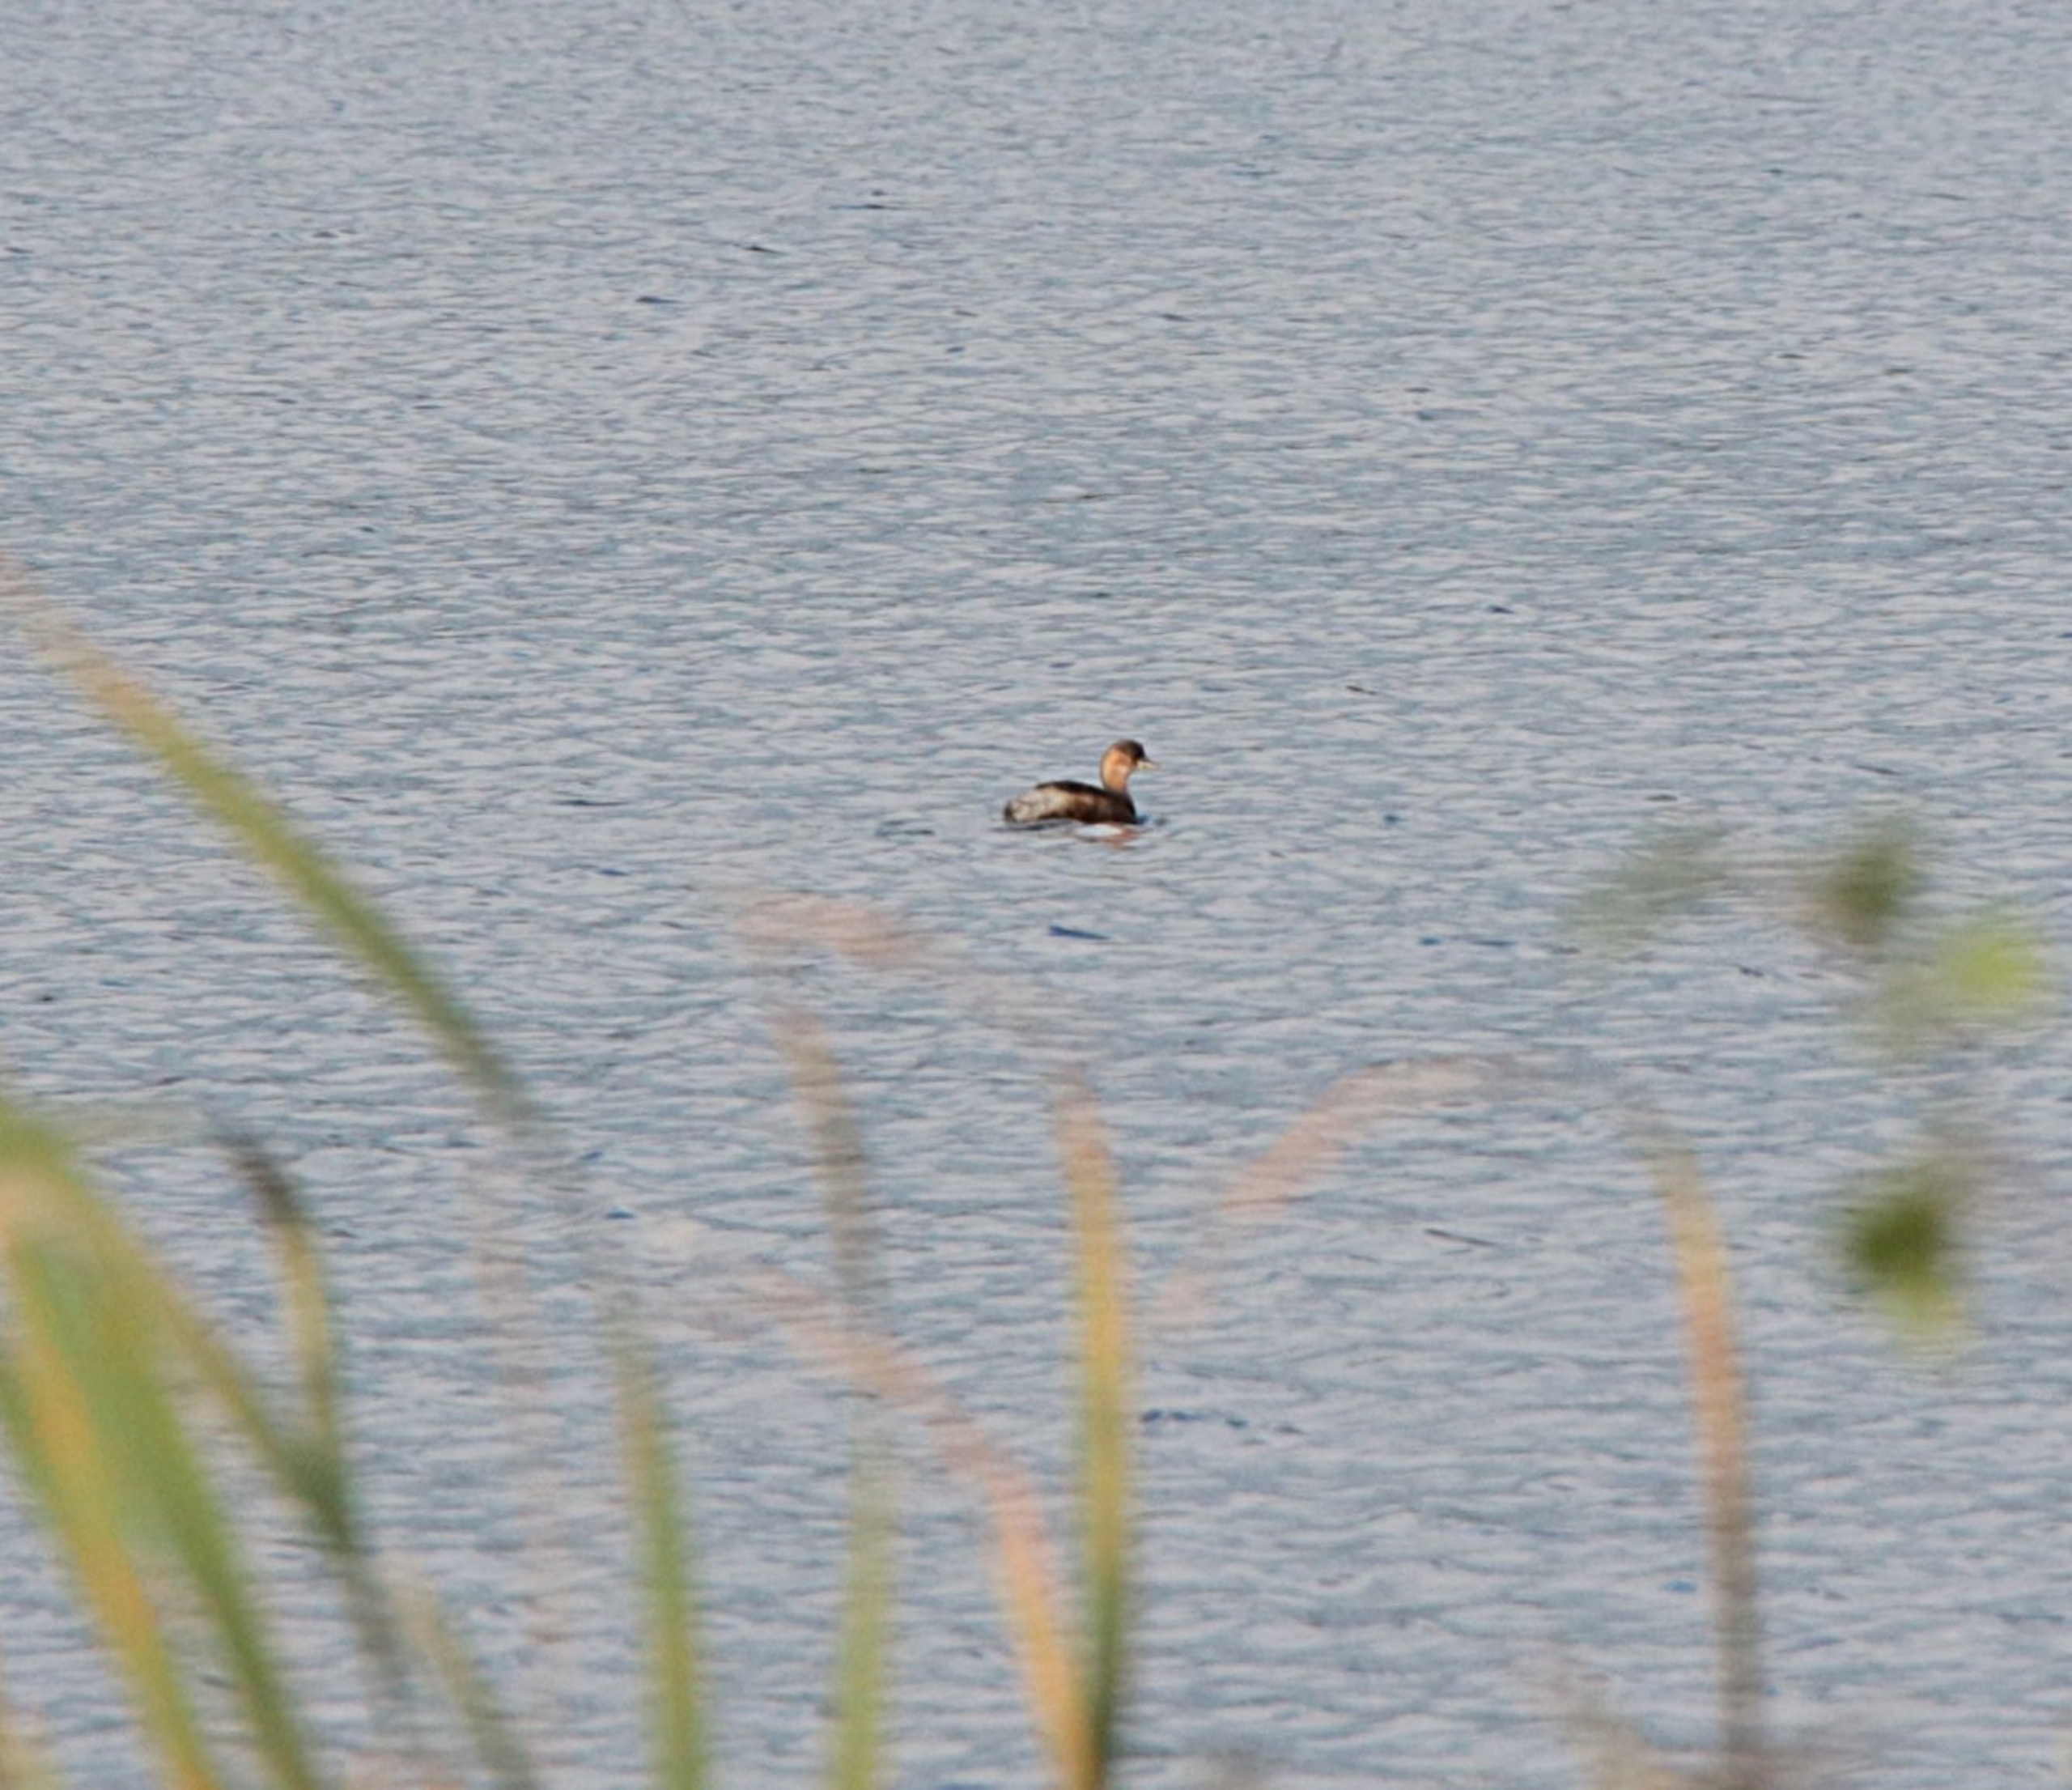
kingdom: Animalia
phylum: Chordata
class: Aves
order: Podicipediformes
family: Podicipedidae
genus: Tachybaptus
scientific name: Tachybaptus ruficollis
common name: Lille lappedykker
